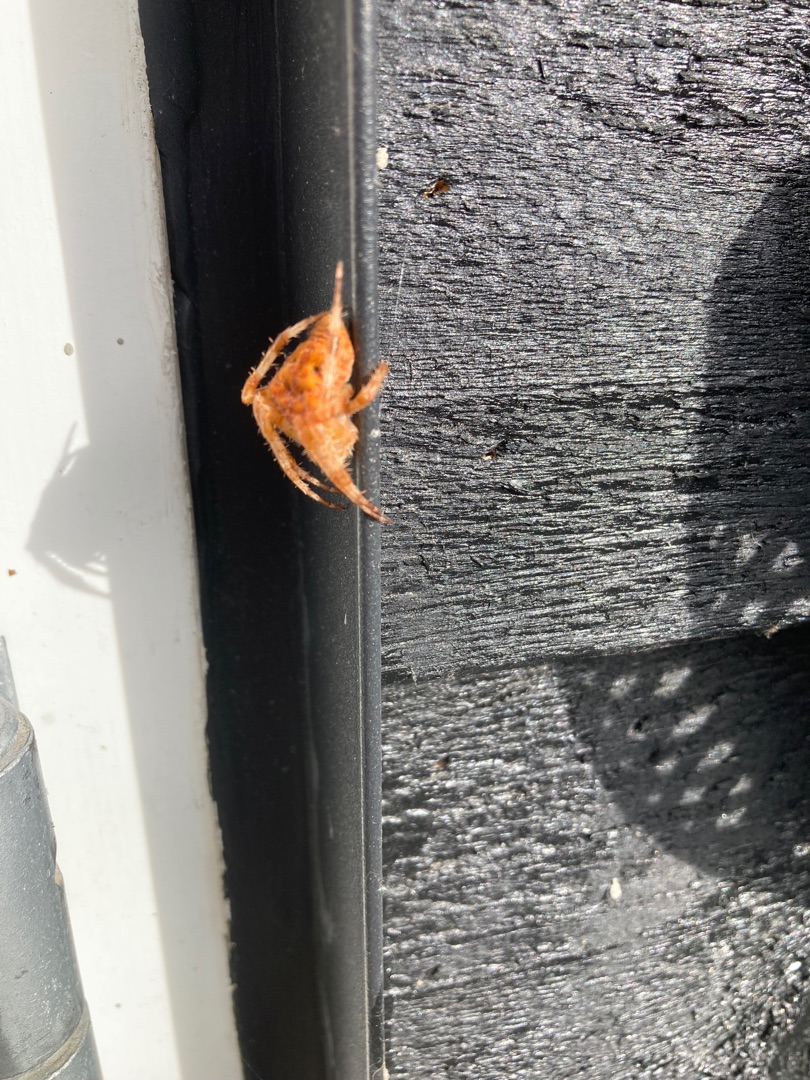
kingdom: Animalia
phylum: Arthropoda
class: Arachnida
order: Araneae
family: Araneidae
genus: Araneus
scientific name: Araneus diadematus
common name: Korsedderkop
